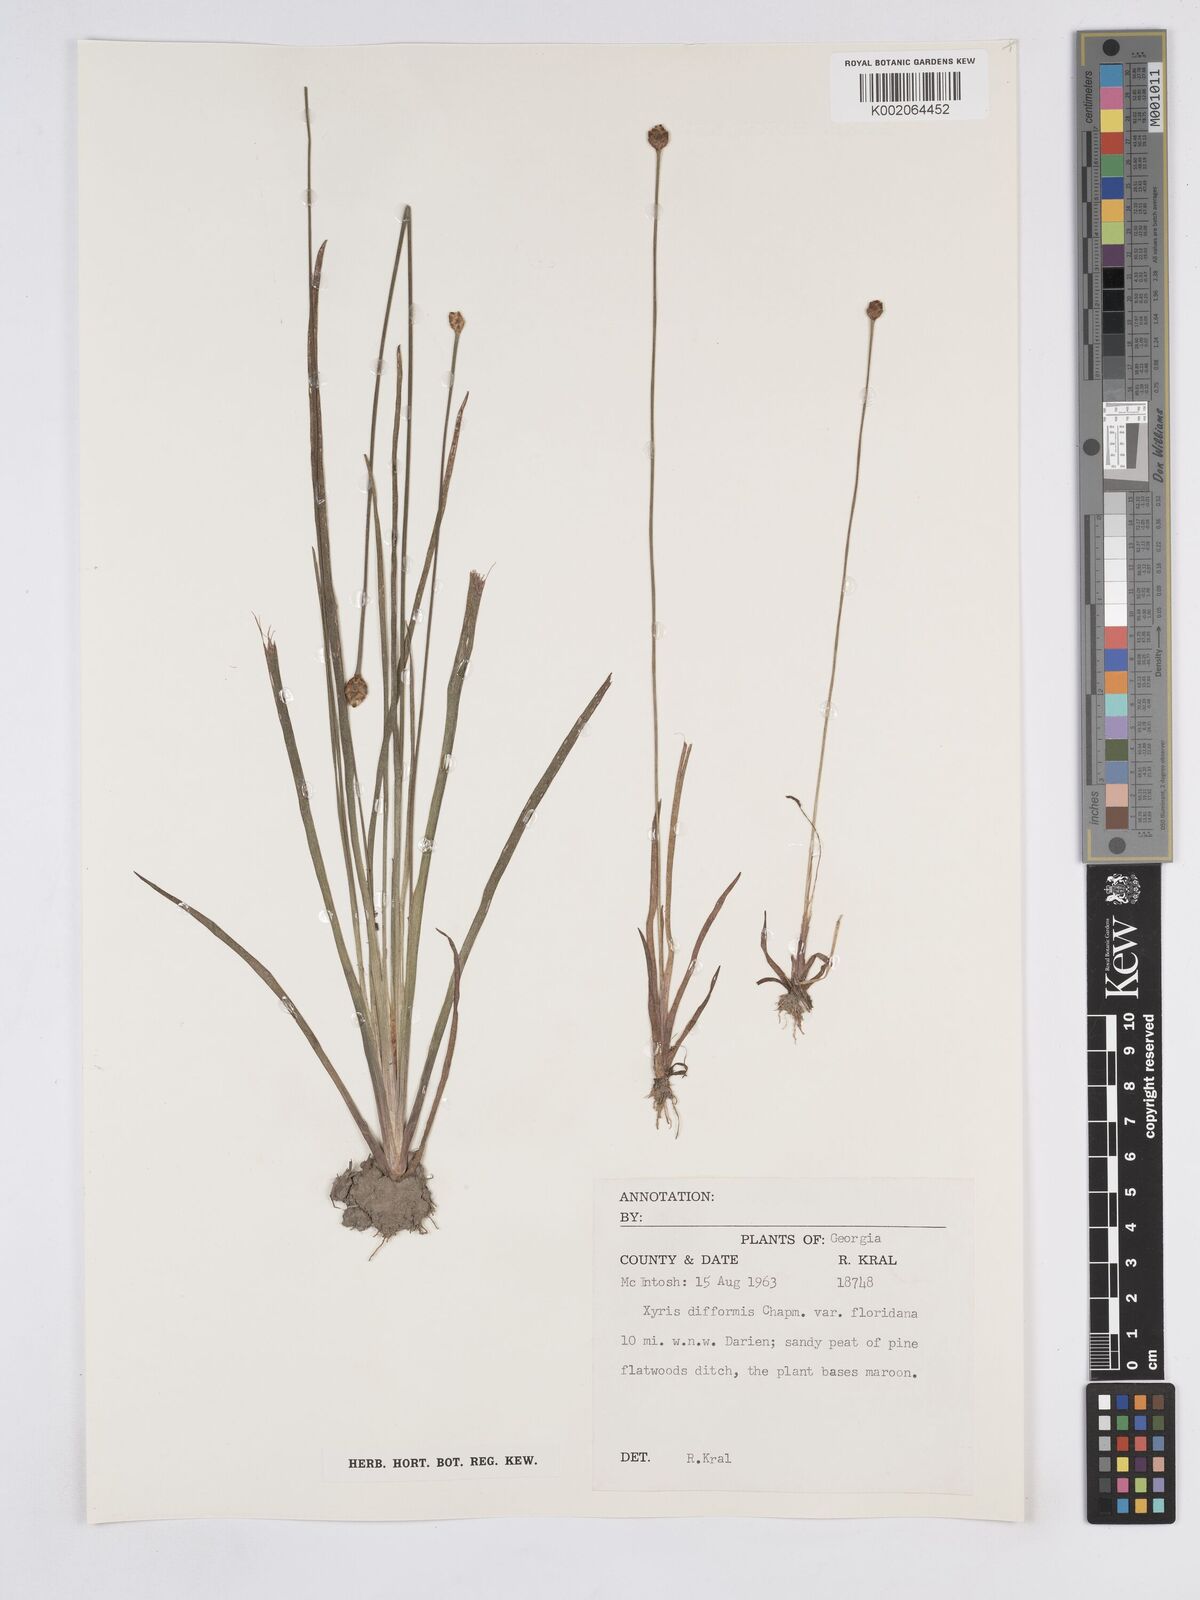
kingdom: Plantae
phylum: Tracheophyta
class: Liliopsida
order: Poales
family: Xyridaceae
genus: Xyris
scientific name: Xyris floridana
